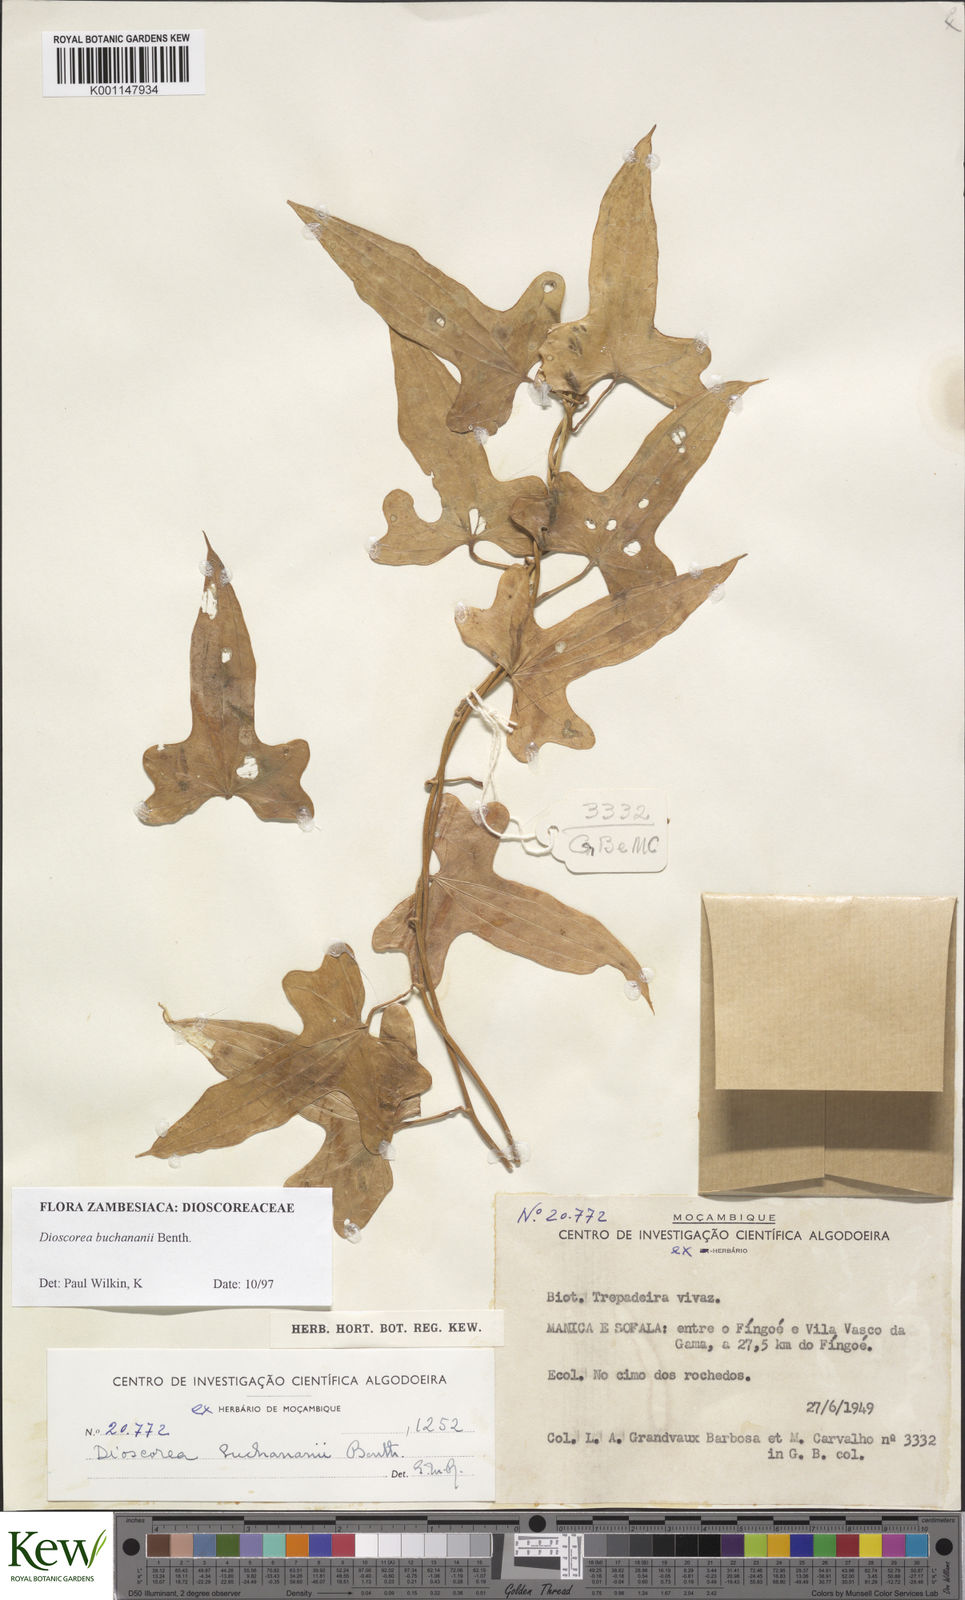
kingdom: Plantae
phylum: Tracheophyta
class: Liliopsida
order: Dioscoreales
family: Dioscoreaceae
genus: Dioscorea
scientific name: Dioscorea buchananii
